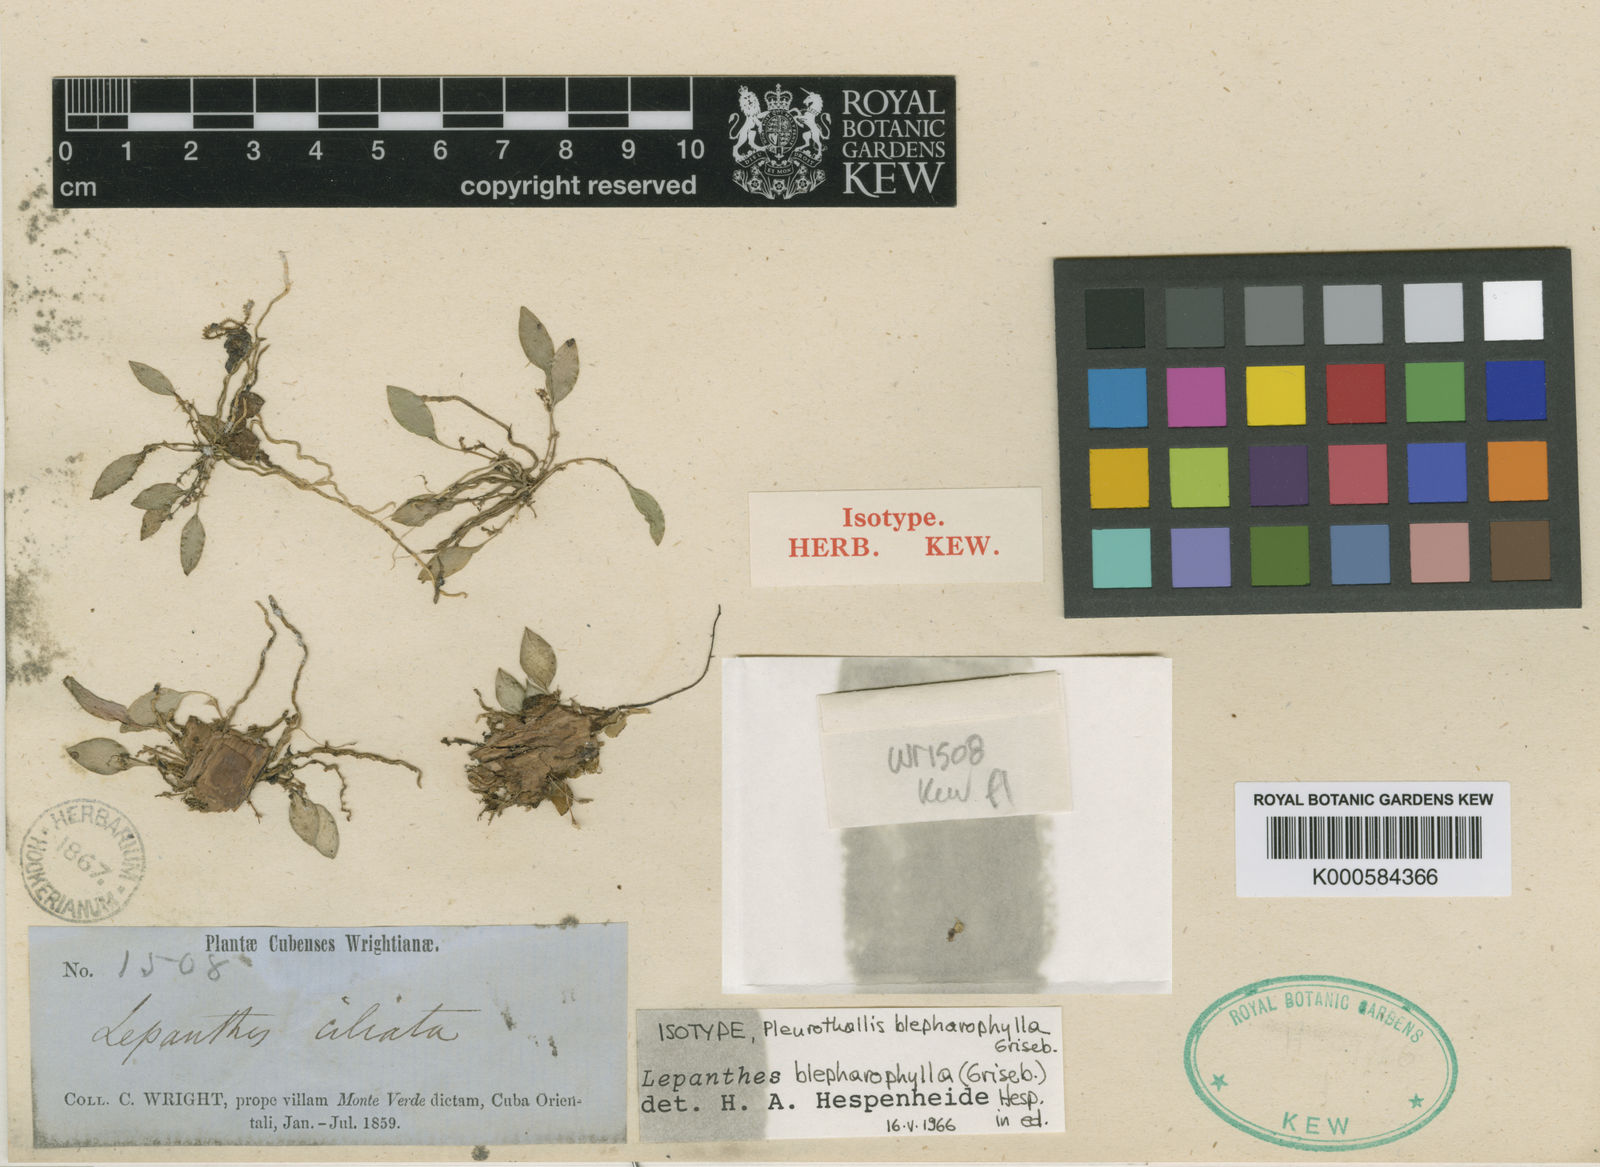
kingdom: Plantae
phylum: Tracheophyta
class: Liliopsida
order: Asparagales
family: Orchidaceae
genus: Lepanthes
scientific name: Lepanthes blepharophylla
